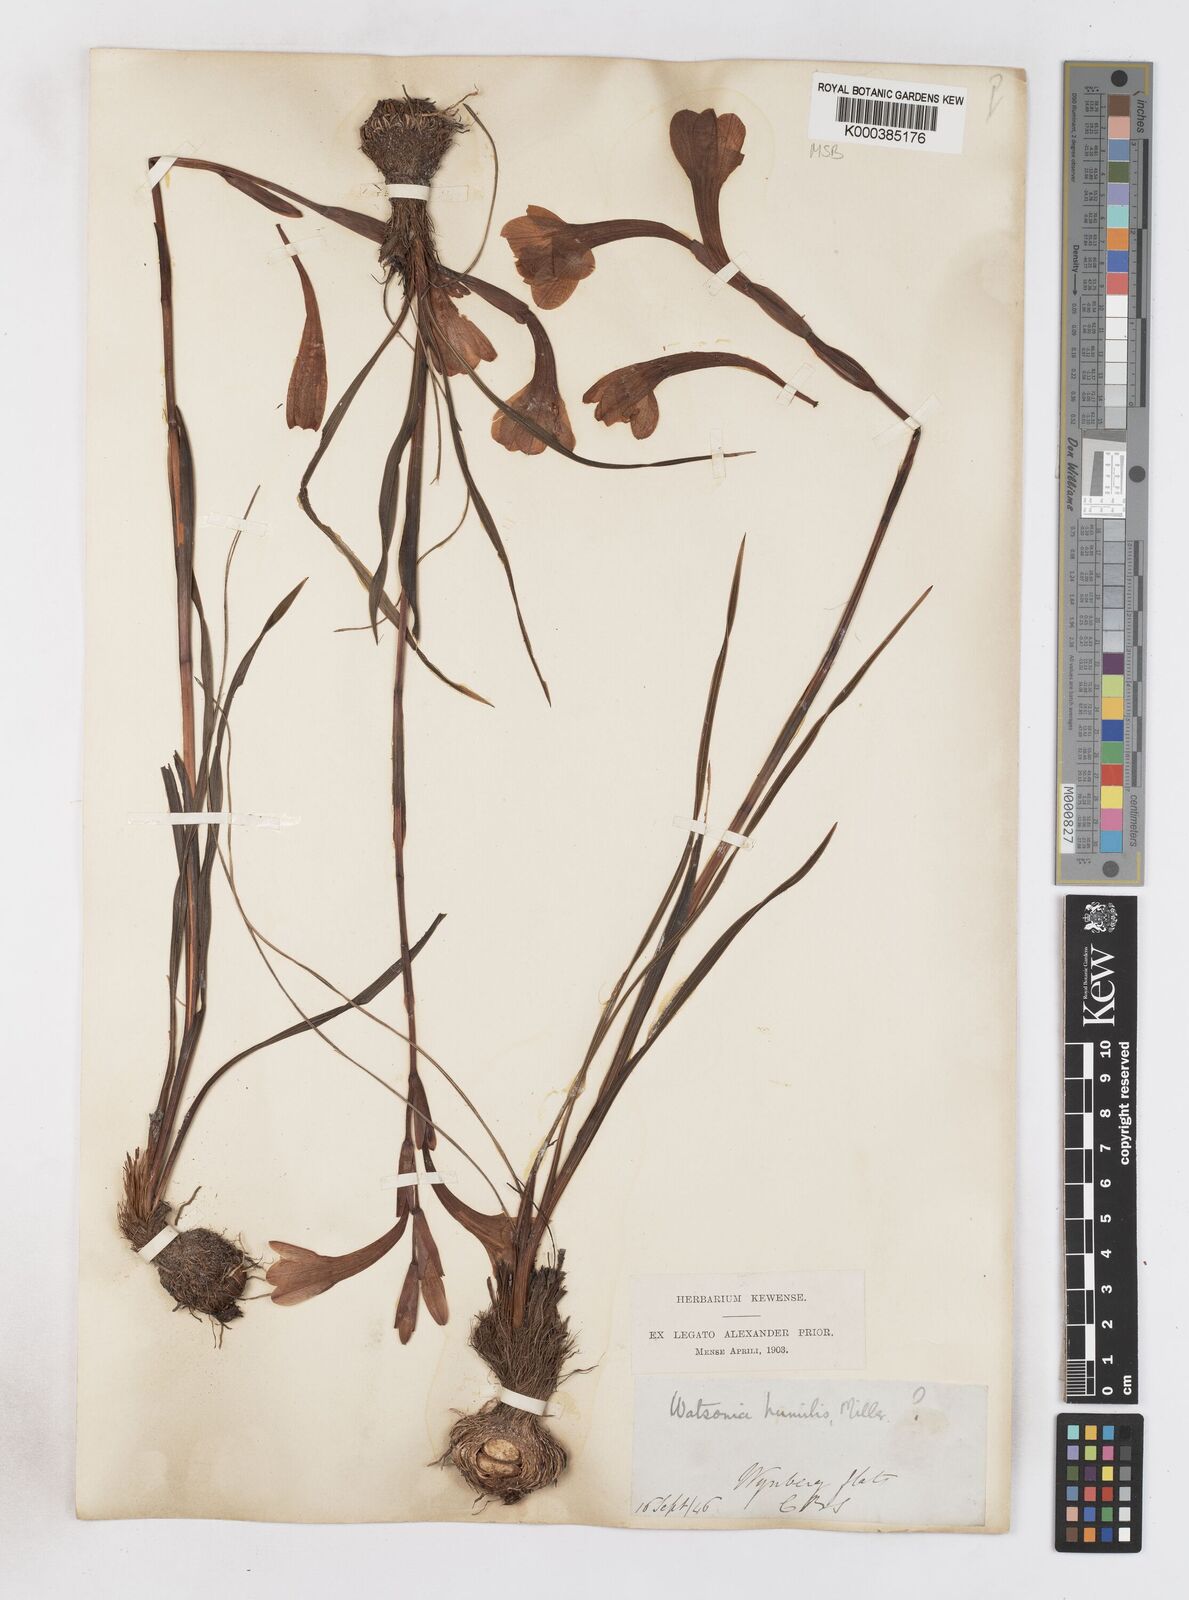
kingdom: Plantae
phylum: Tracheophyta
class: Liliopsida
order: Asparagales
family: Iridaceae
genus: Watsonia
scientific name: Watsonia humilis
